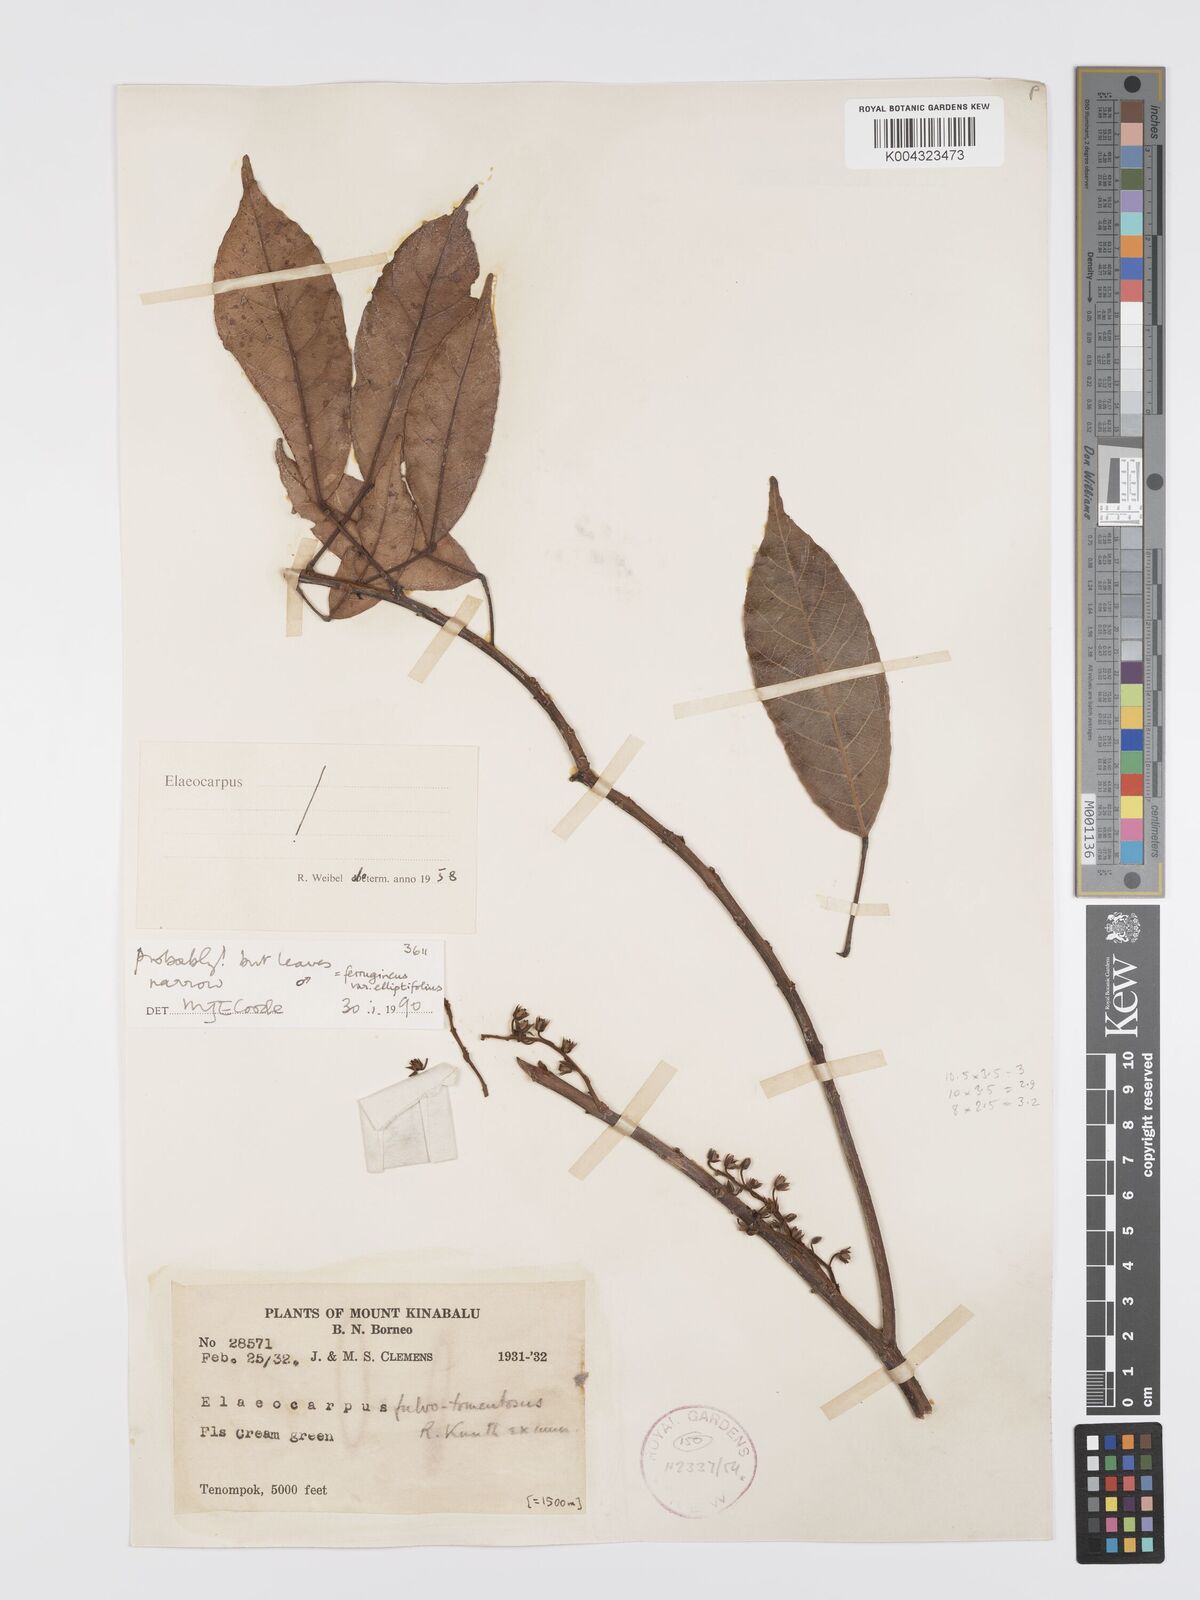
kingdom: Plantae
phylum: Tracheophyta
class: Magnoliopsida
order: Oxalidales
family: Elaeocarpaceae
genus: Elaeocarpus
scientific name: Elaeocarpus ferrugineus
